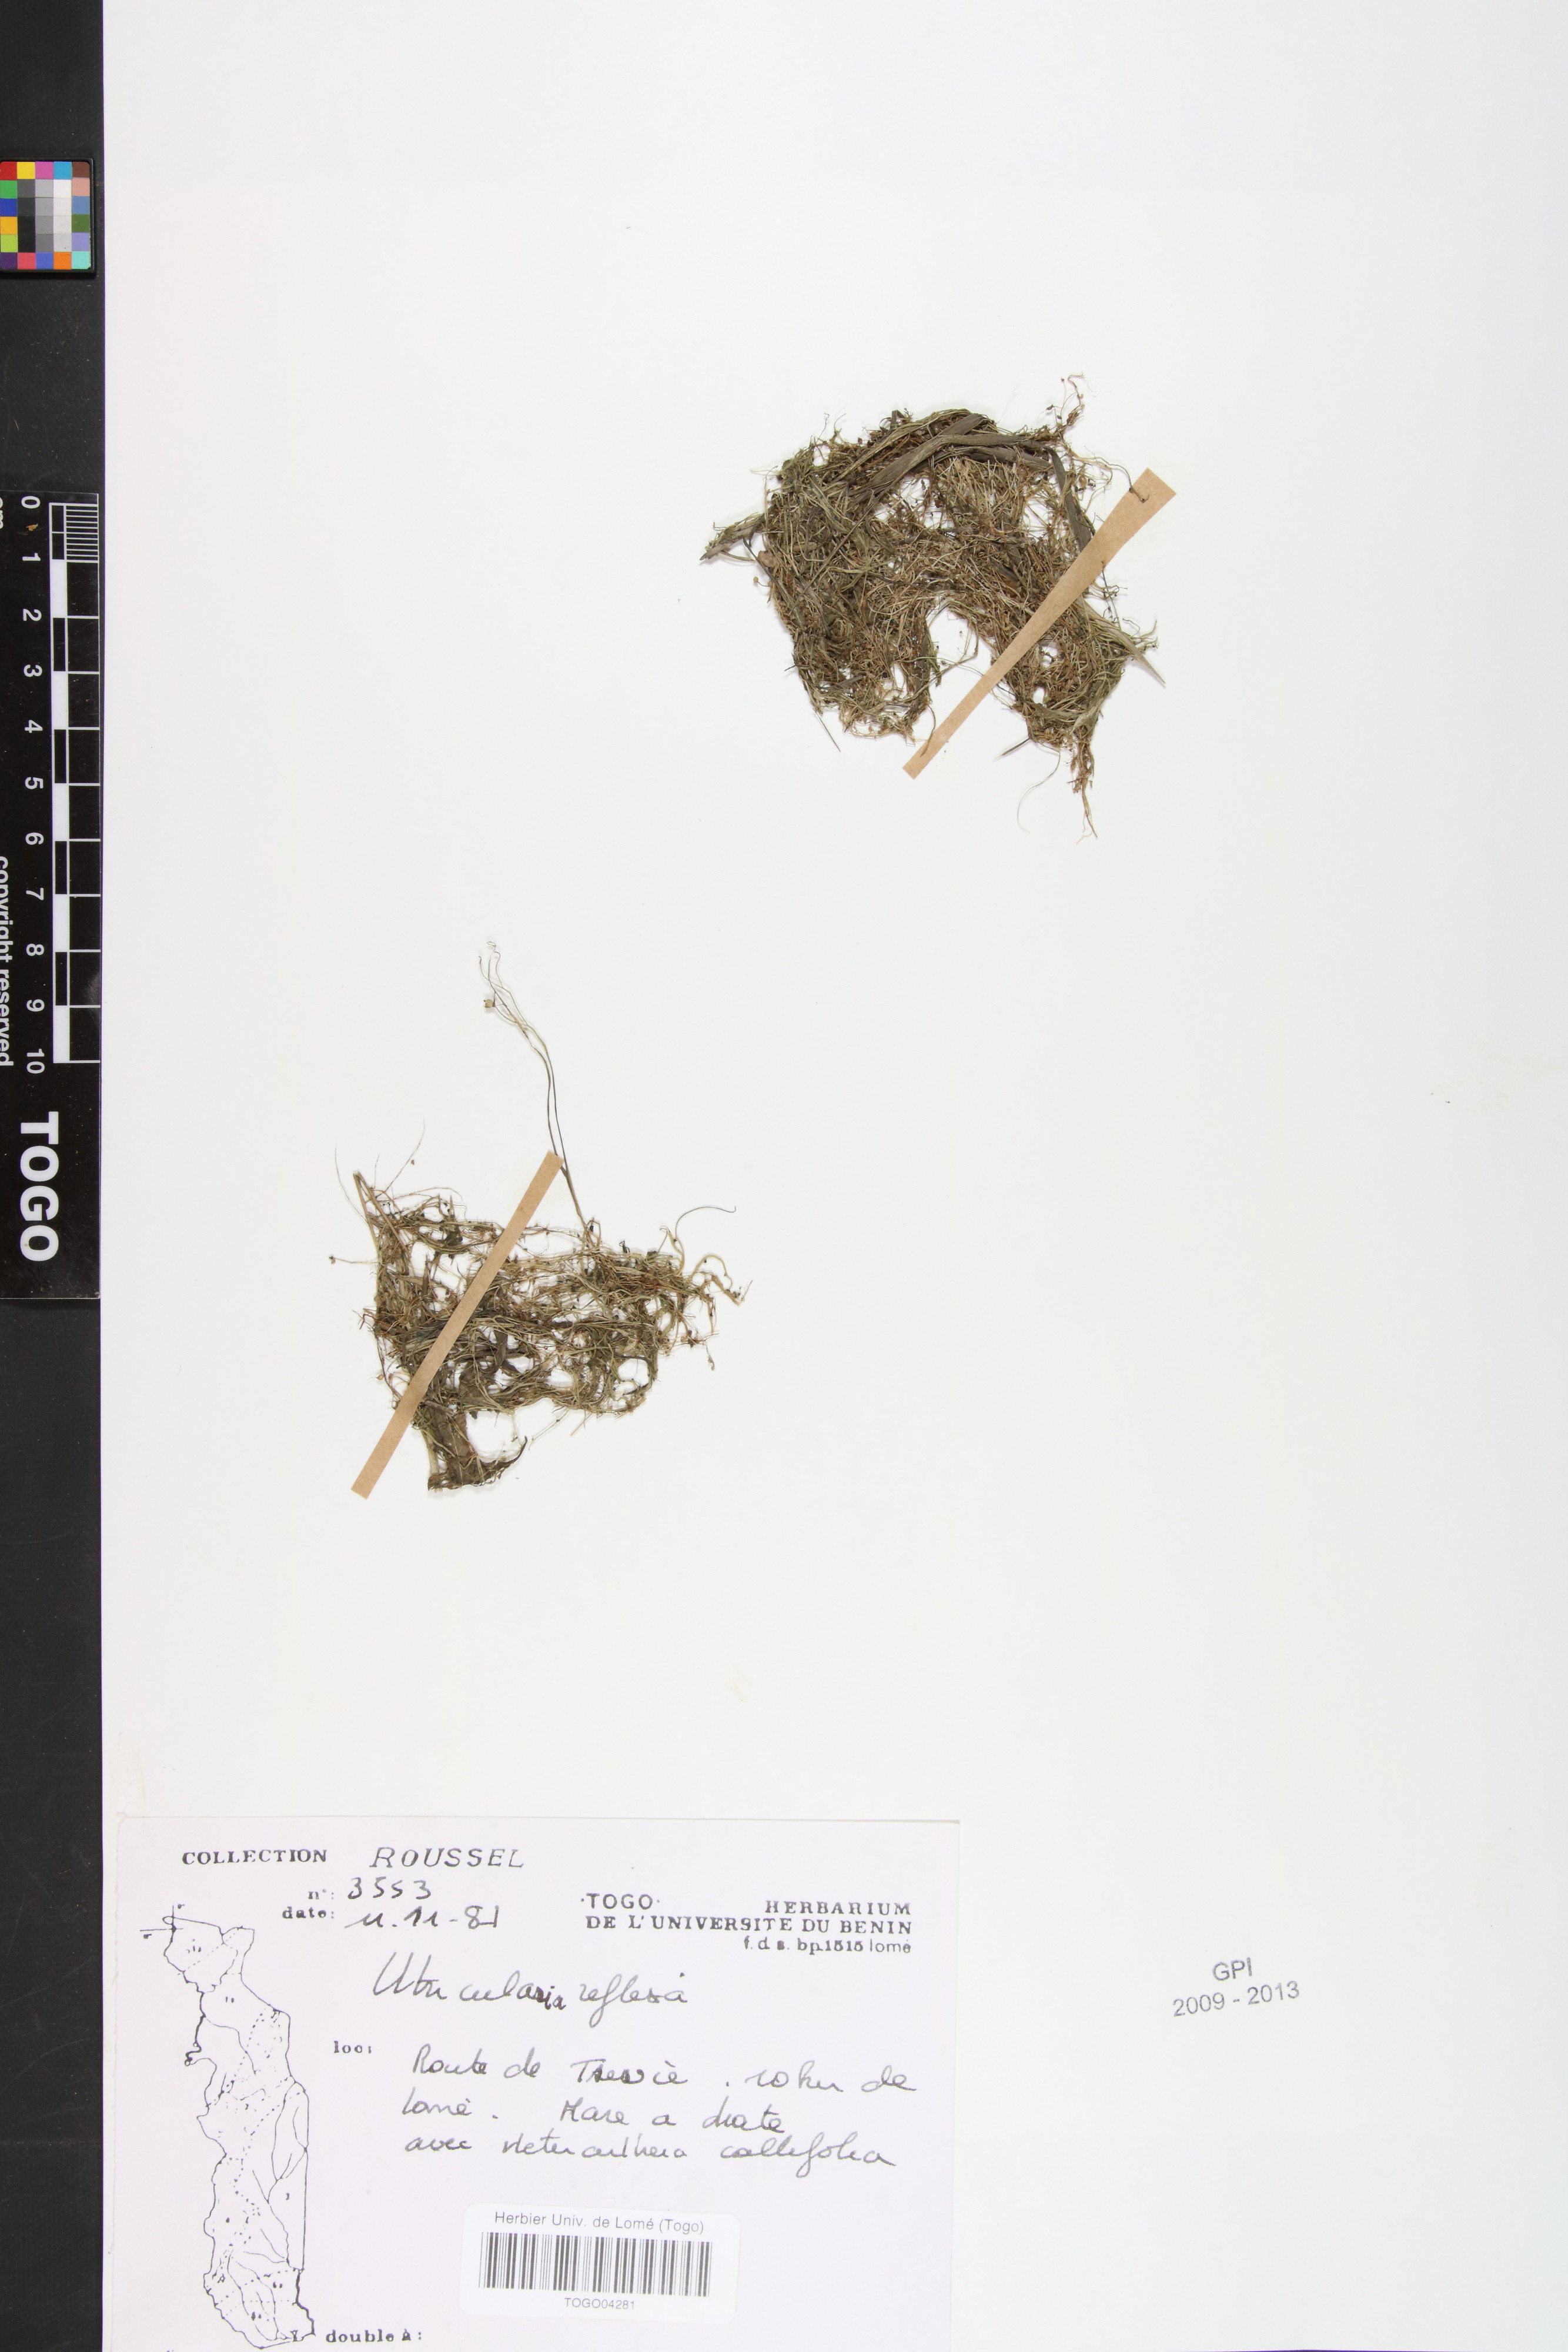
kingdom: Plantae
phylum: Tracheophyta
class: Magnoliopsida
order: Lamiales
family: Lentibulariaceae
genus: Utricularia
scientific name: Utricularia reflexa
